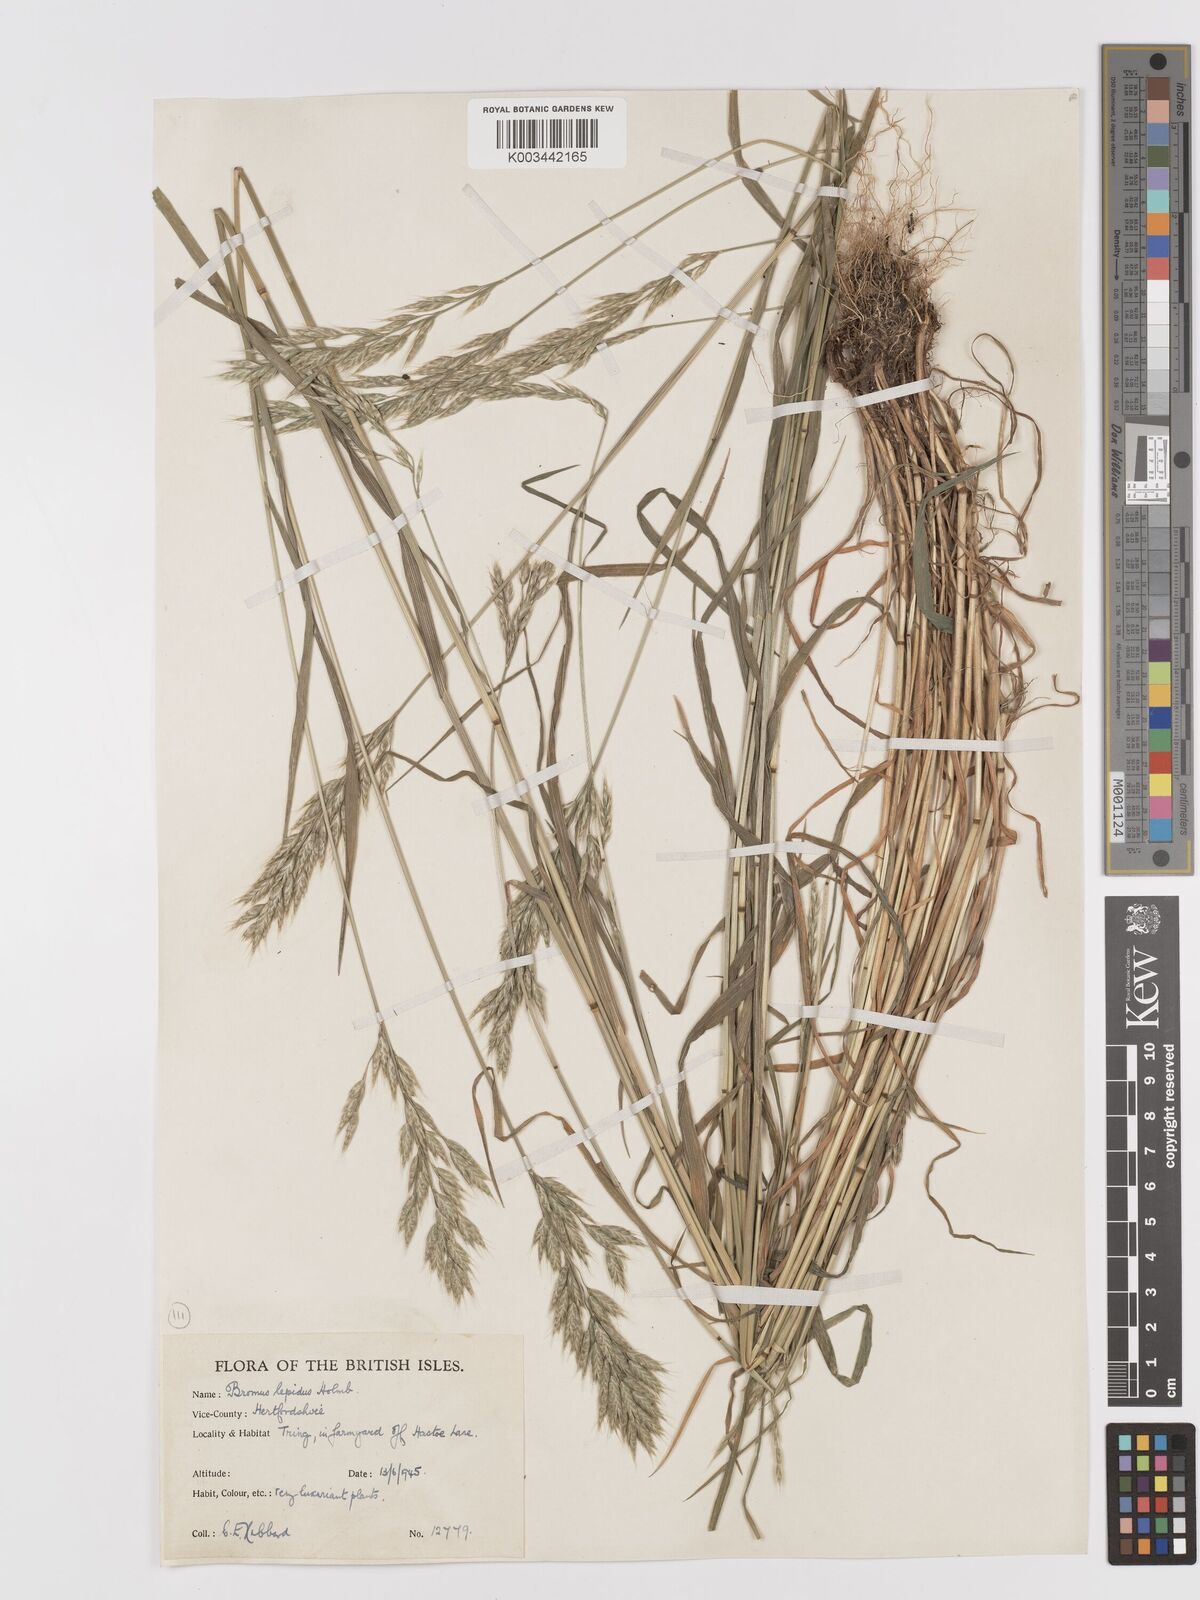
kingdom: Plantae
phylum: Tracheophyta
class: Liliopsida
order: Poales
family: Poaceae
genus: Bromus
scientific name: Bromus lepidus
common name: Slender soft-brome
